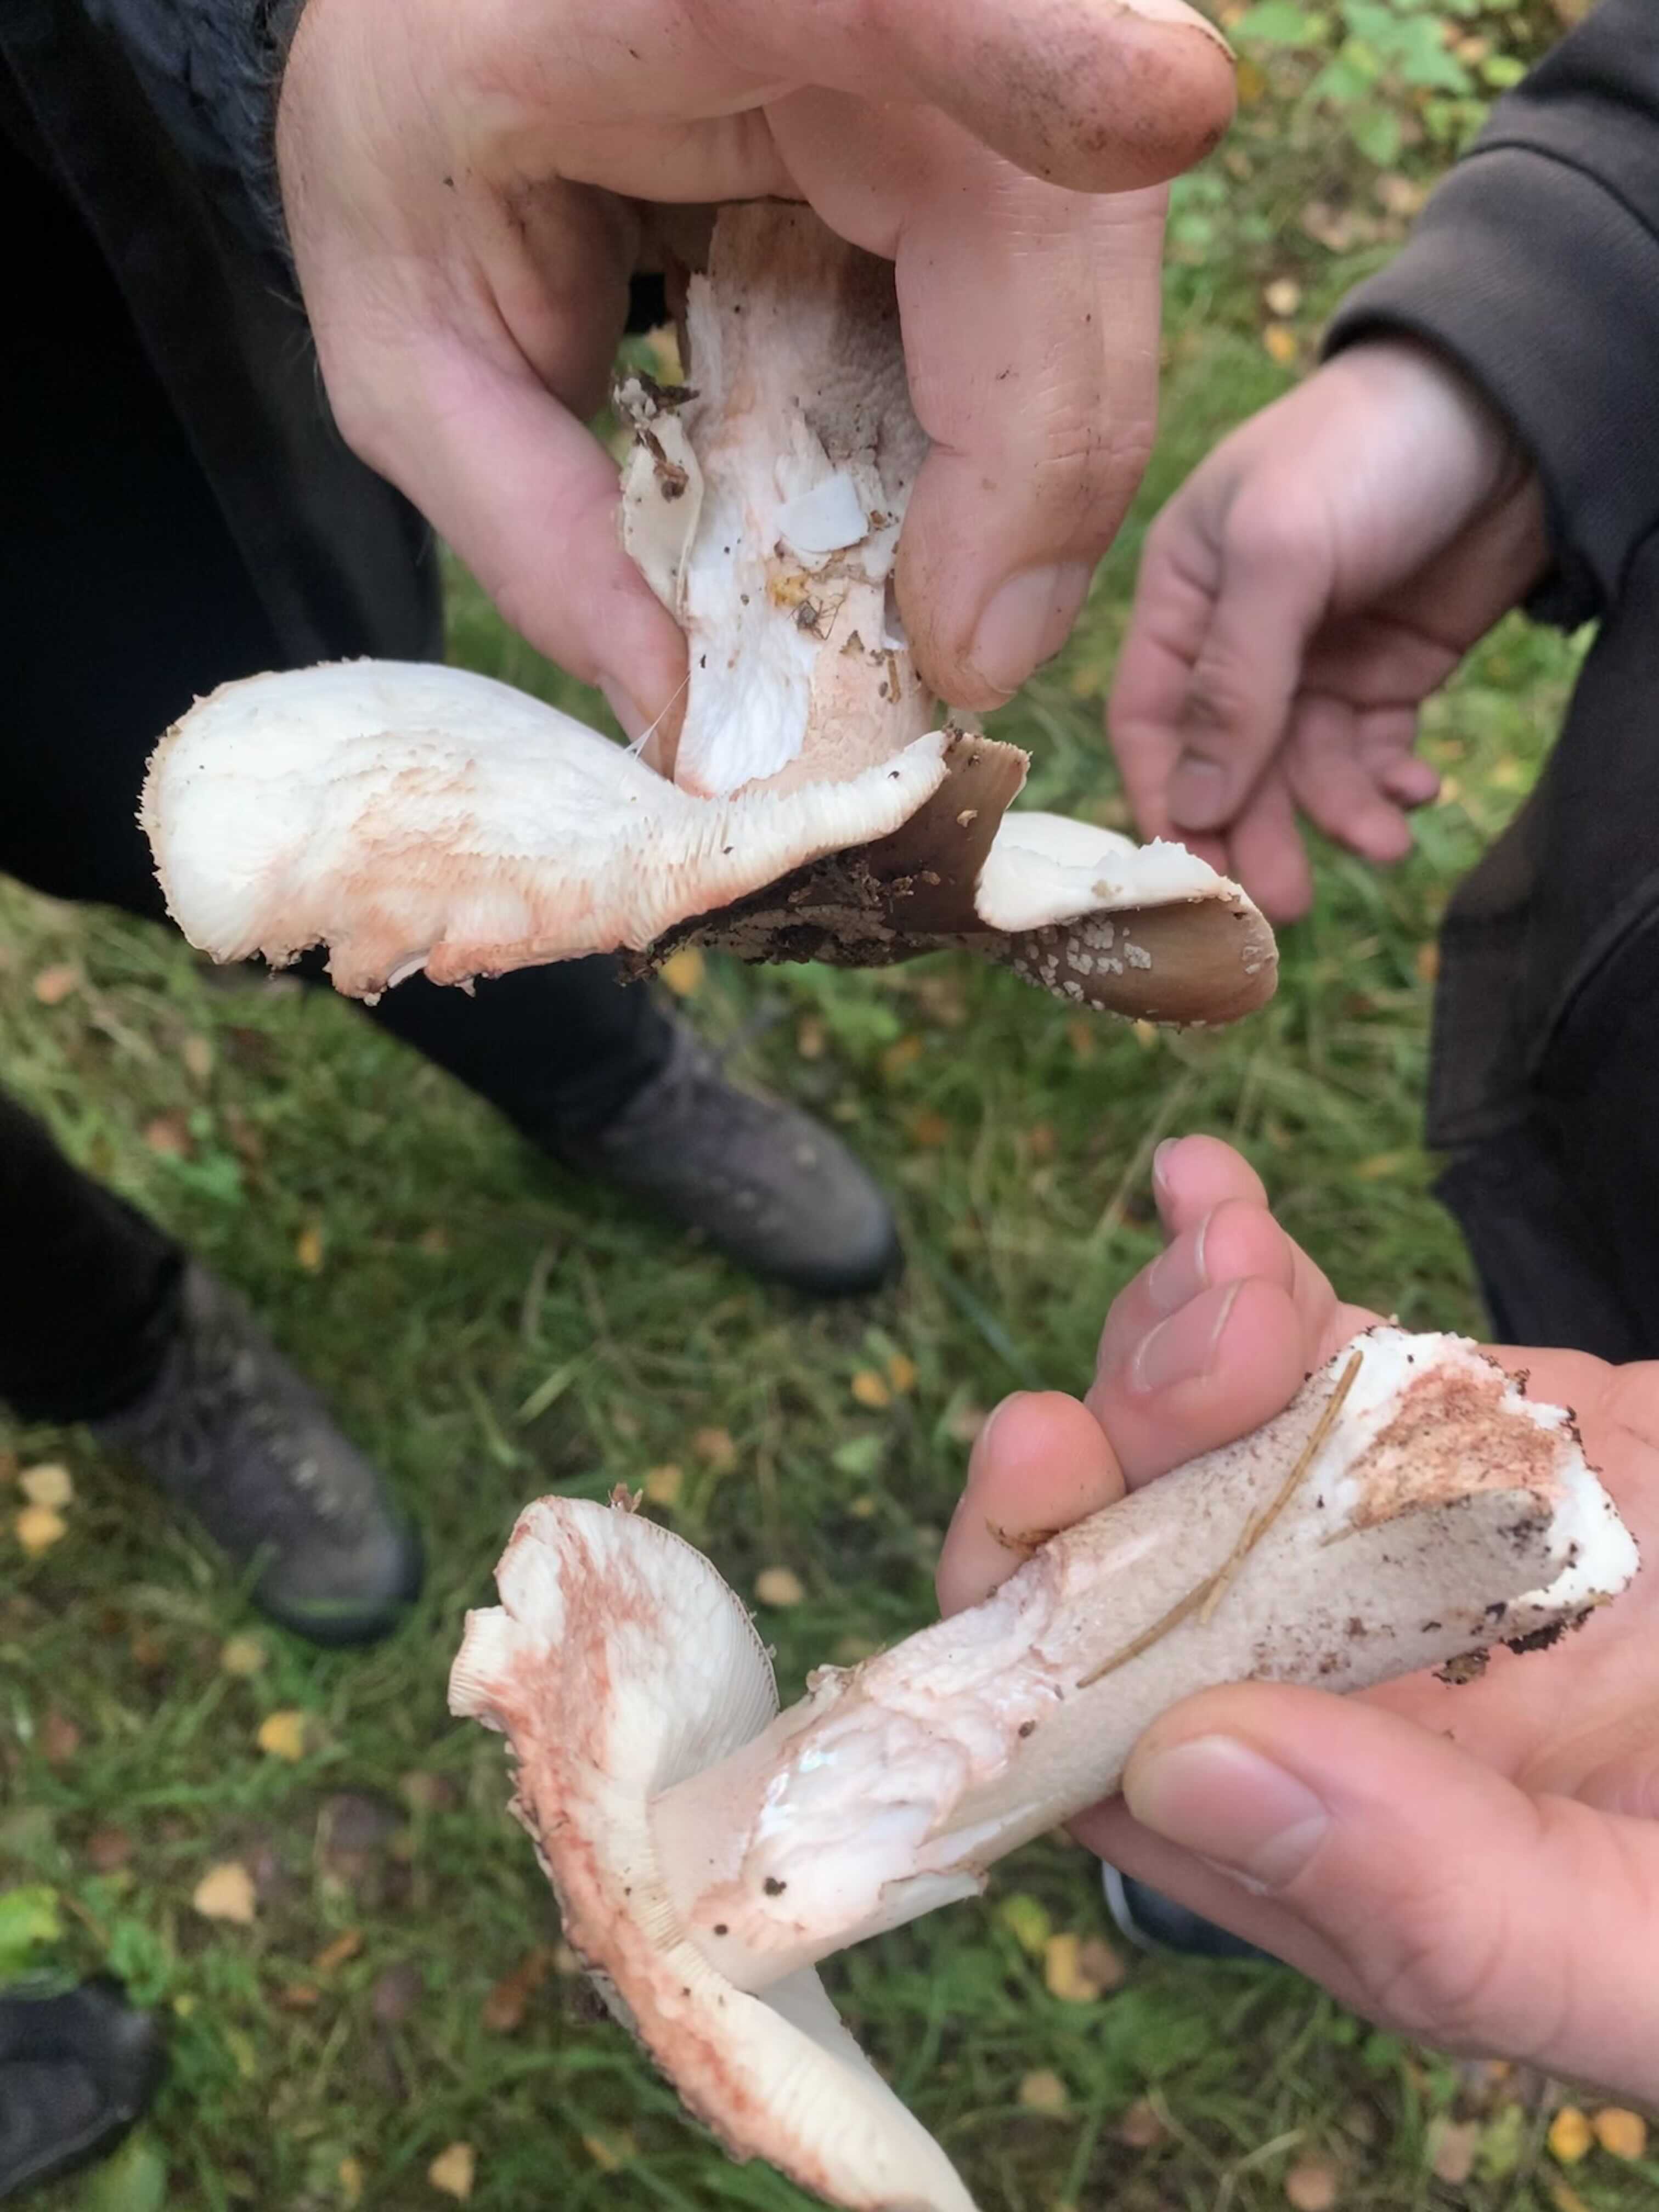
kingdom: Fungi
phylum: Basidiomycota
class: Agaricomycetes
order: Agaricales
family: Amanitaceae
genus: Amanita
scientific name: Amanita rubescens
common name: rødmende fluesvamp
